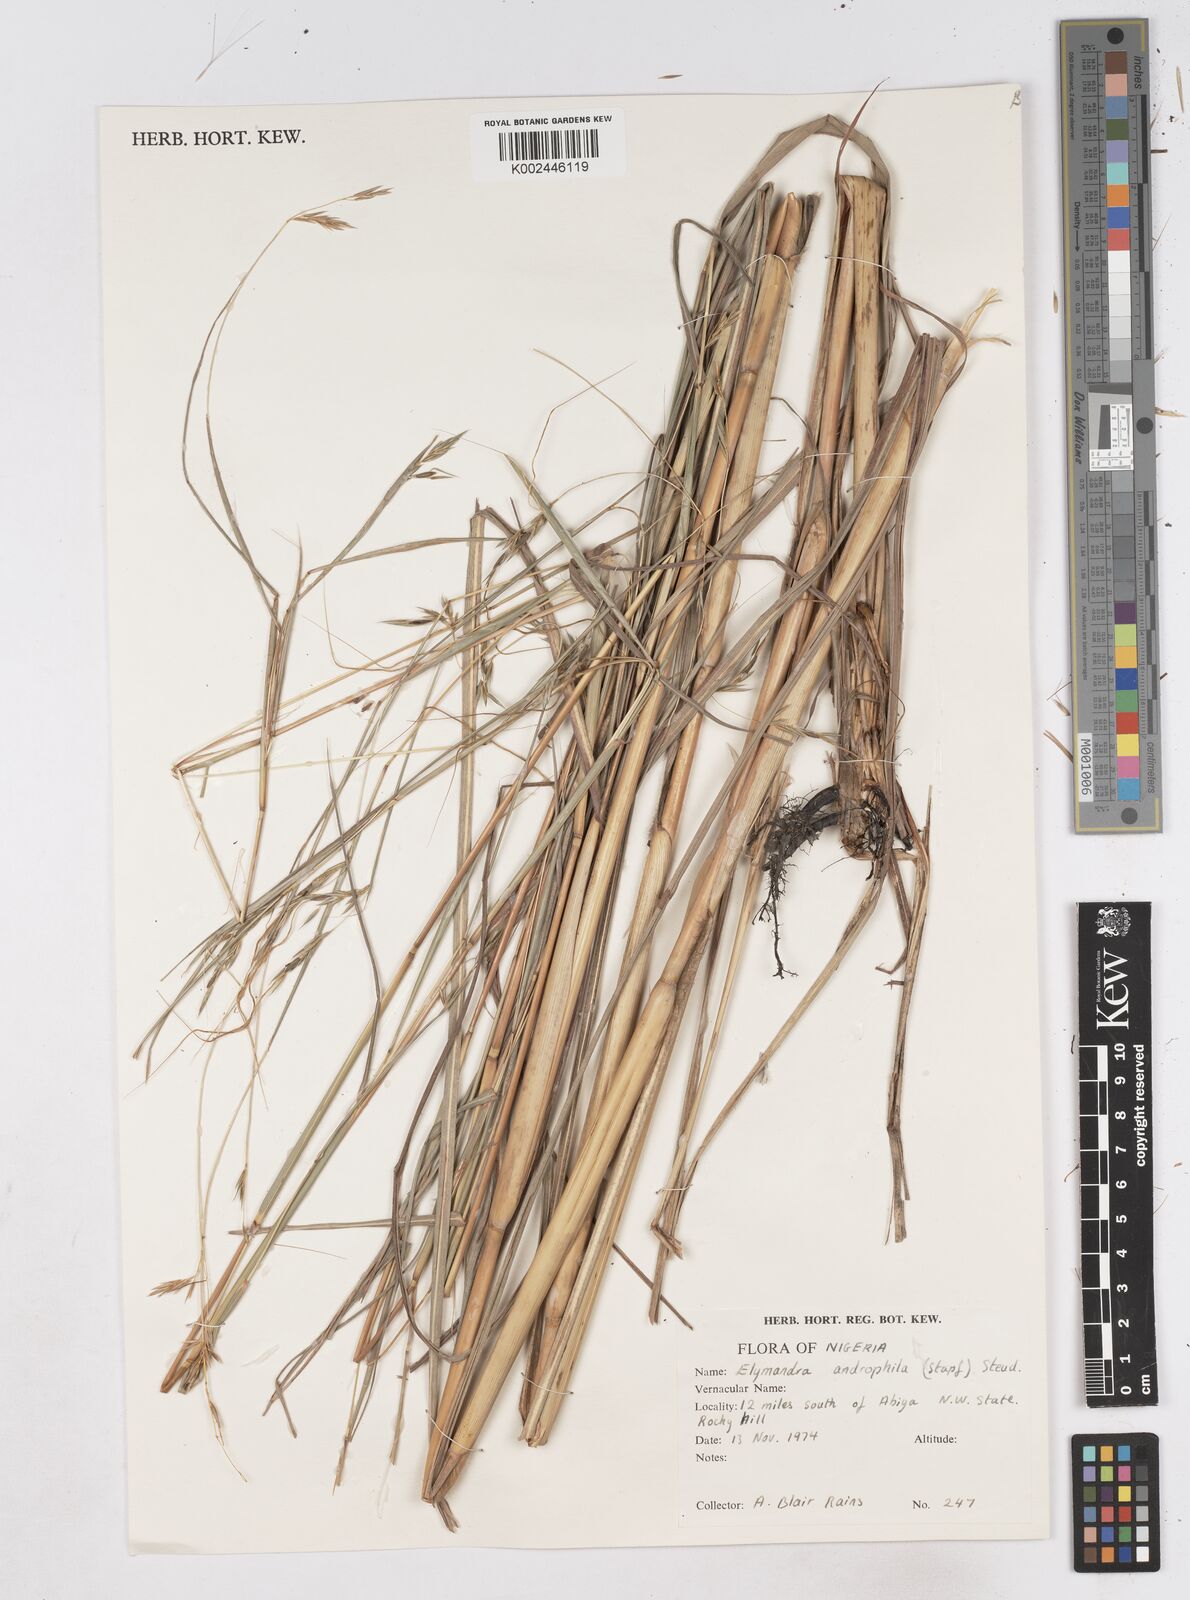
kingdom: Plantae
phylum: Tracheophyta
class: Liliopsida
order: Poales
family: Poaceae
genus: Elymandra
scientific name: Elymandra androphila
